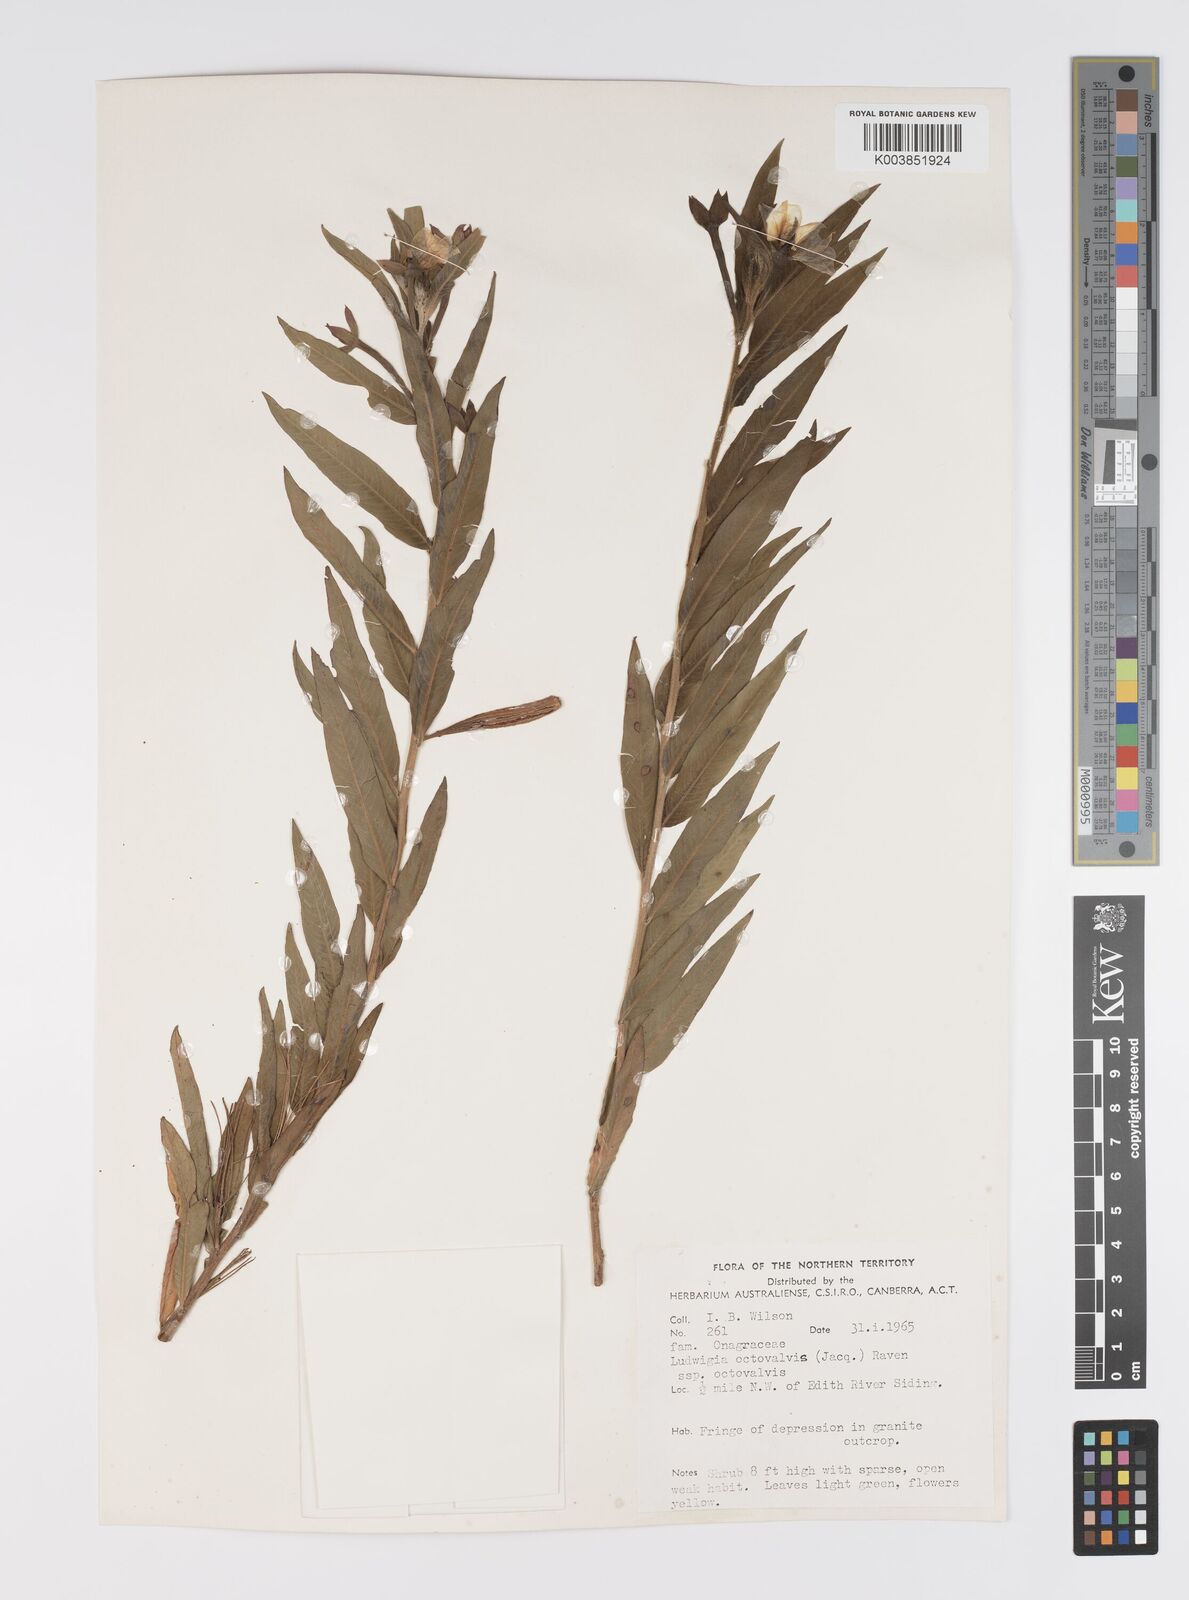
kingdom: Plantae
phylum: Tracheophyta
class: Magnoliopsida
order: Myrtales
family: Onagraceae
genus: Ludwigia
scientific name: Ludwigia octovalvis
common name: Water-primrose
